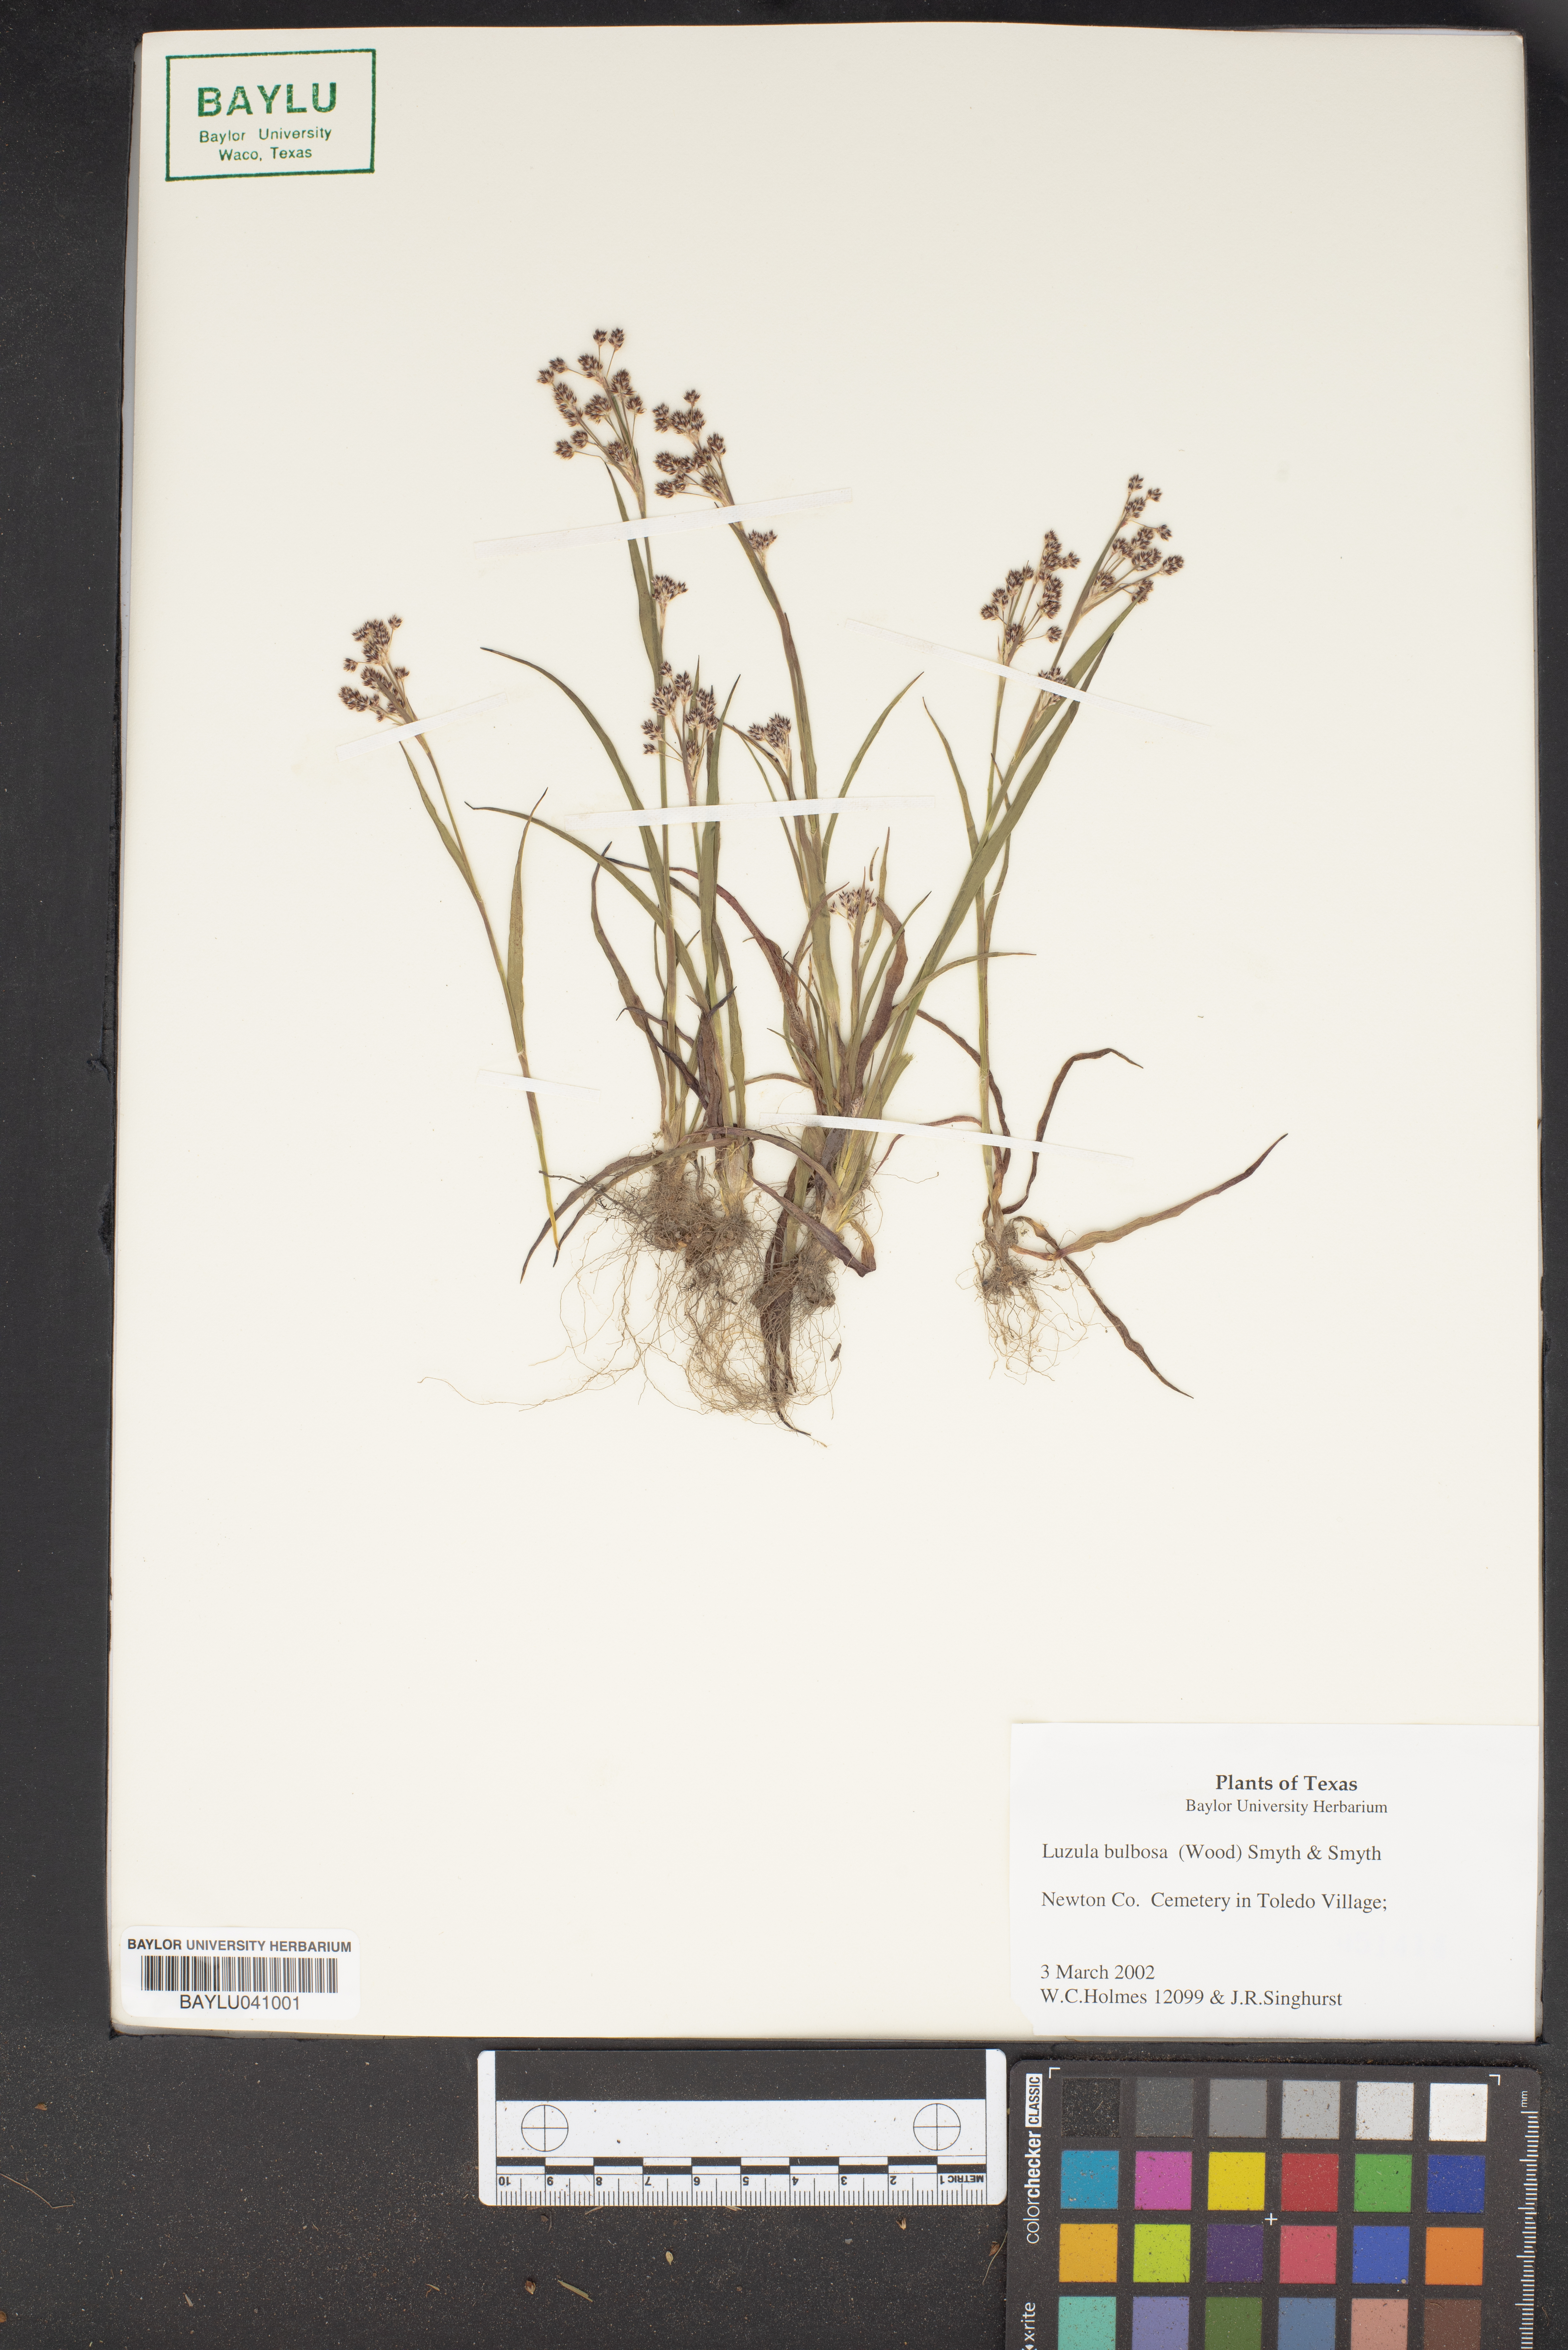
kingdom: Plantae
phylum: Tracheophyta
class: Liliopsida
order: Poales
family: Juncaceae
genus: Luzula
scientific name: Luzula bulbosa
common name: Bulbous woodrush
